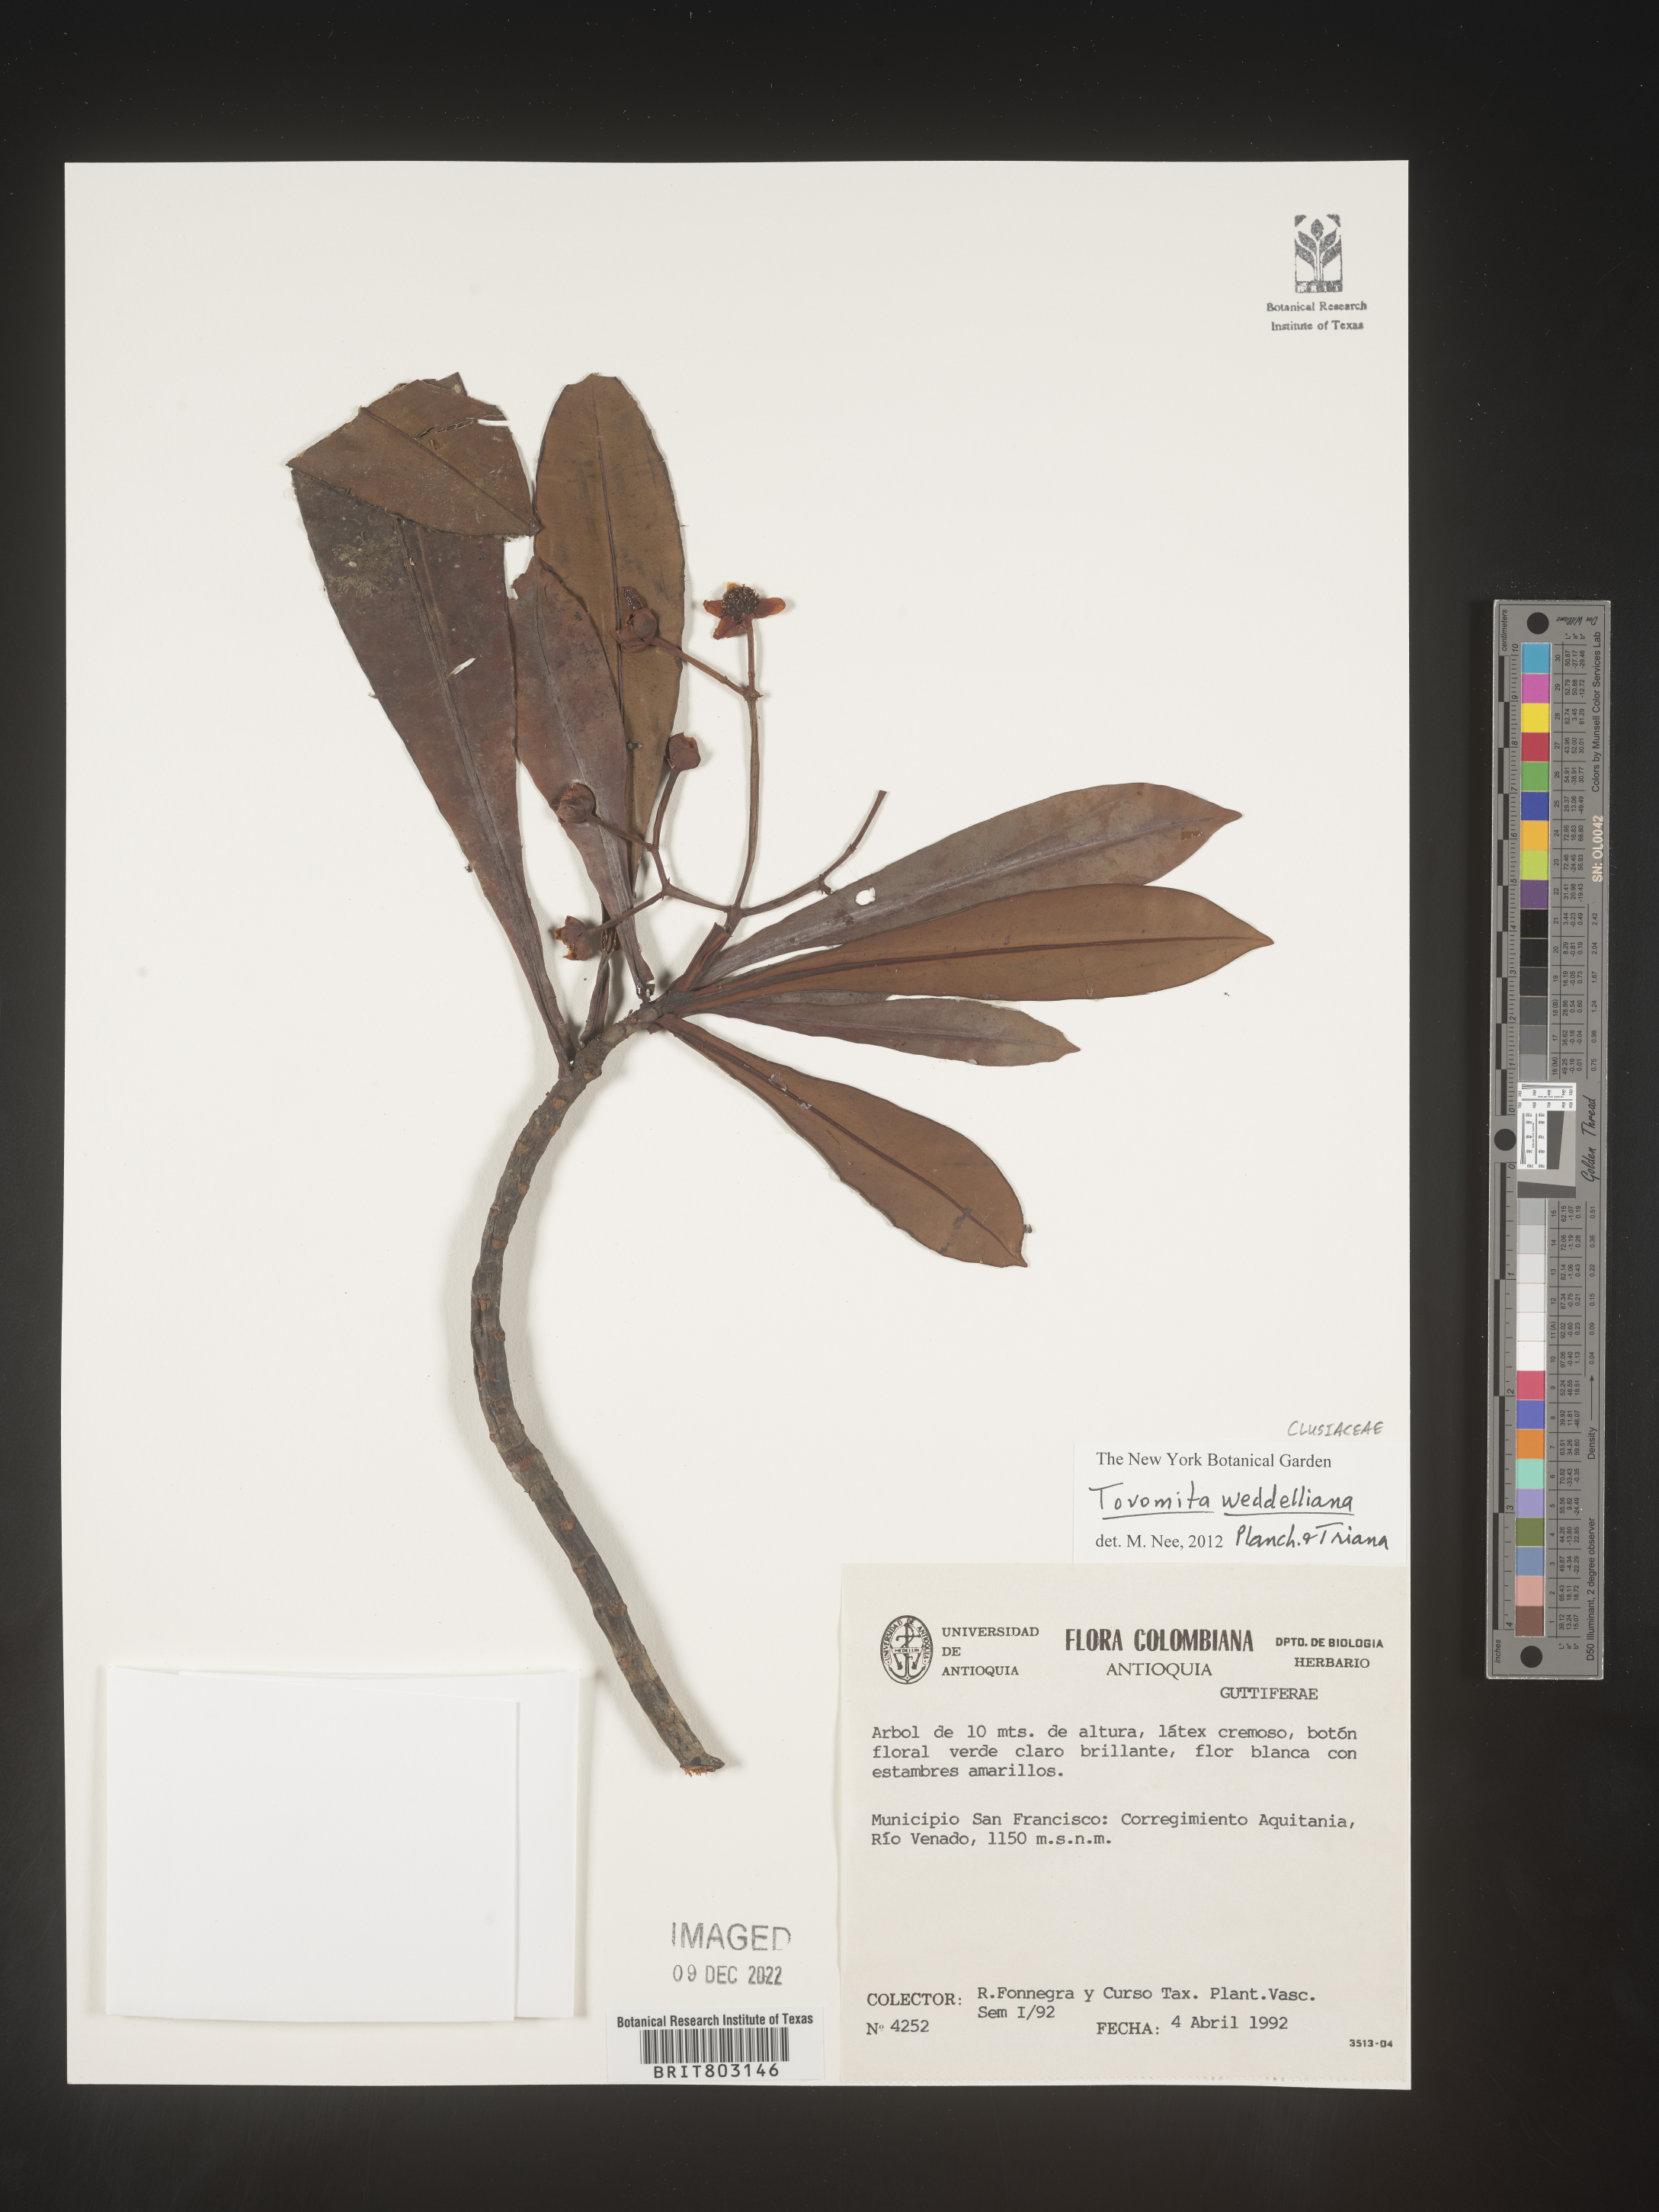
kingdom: Plantae
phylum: Tracheophyta
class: Magnoliopsida
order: Malpighiales
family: Clusiaceae
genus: Arawakia
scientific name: Arawakia weddelliana
